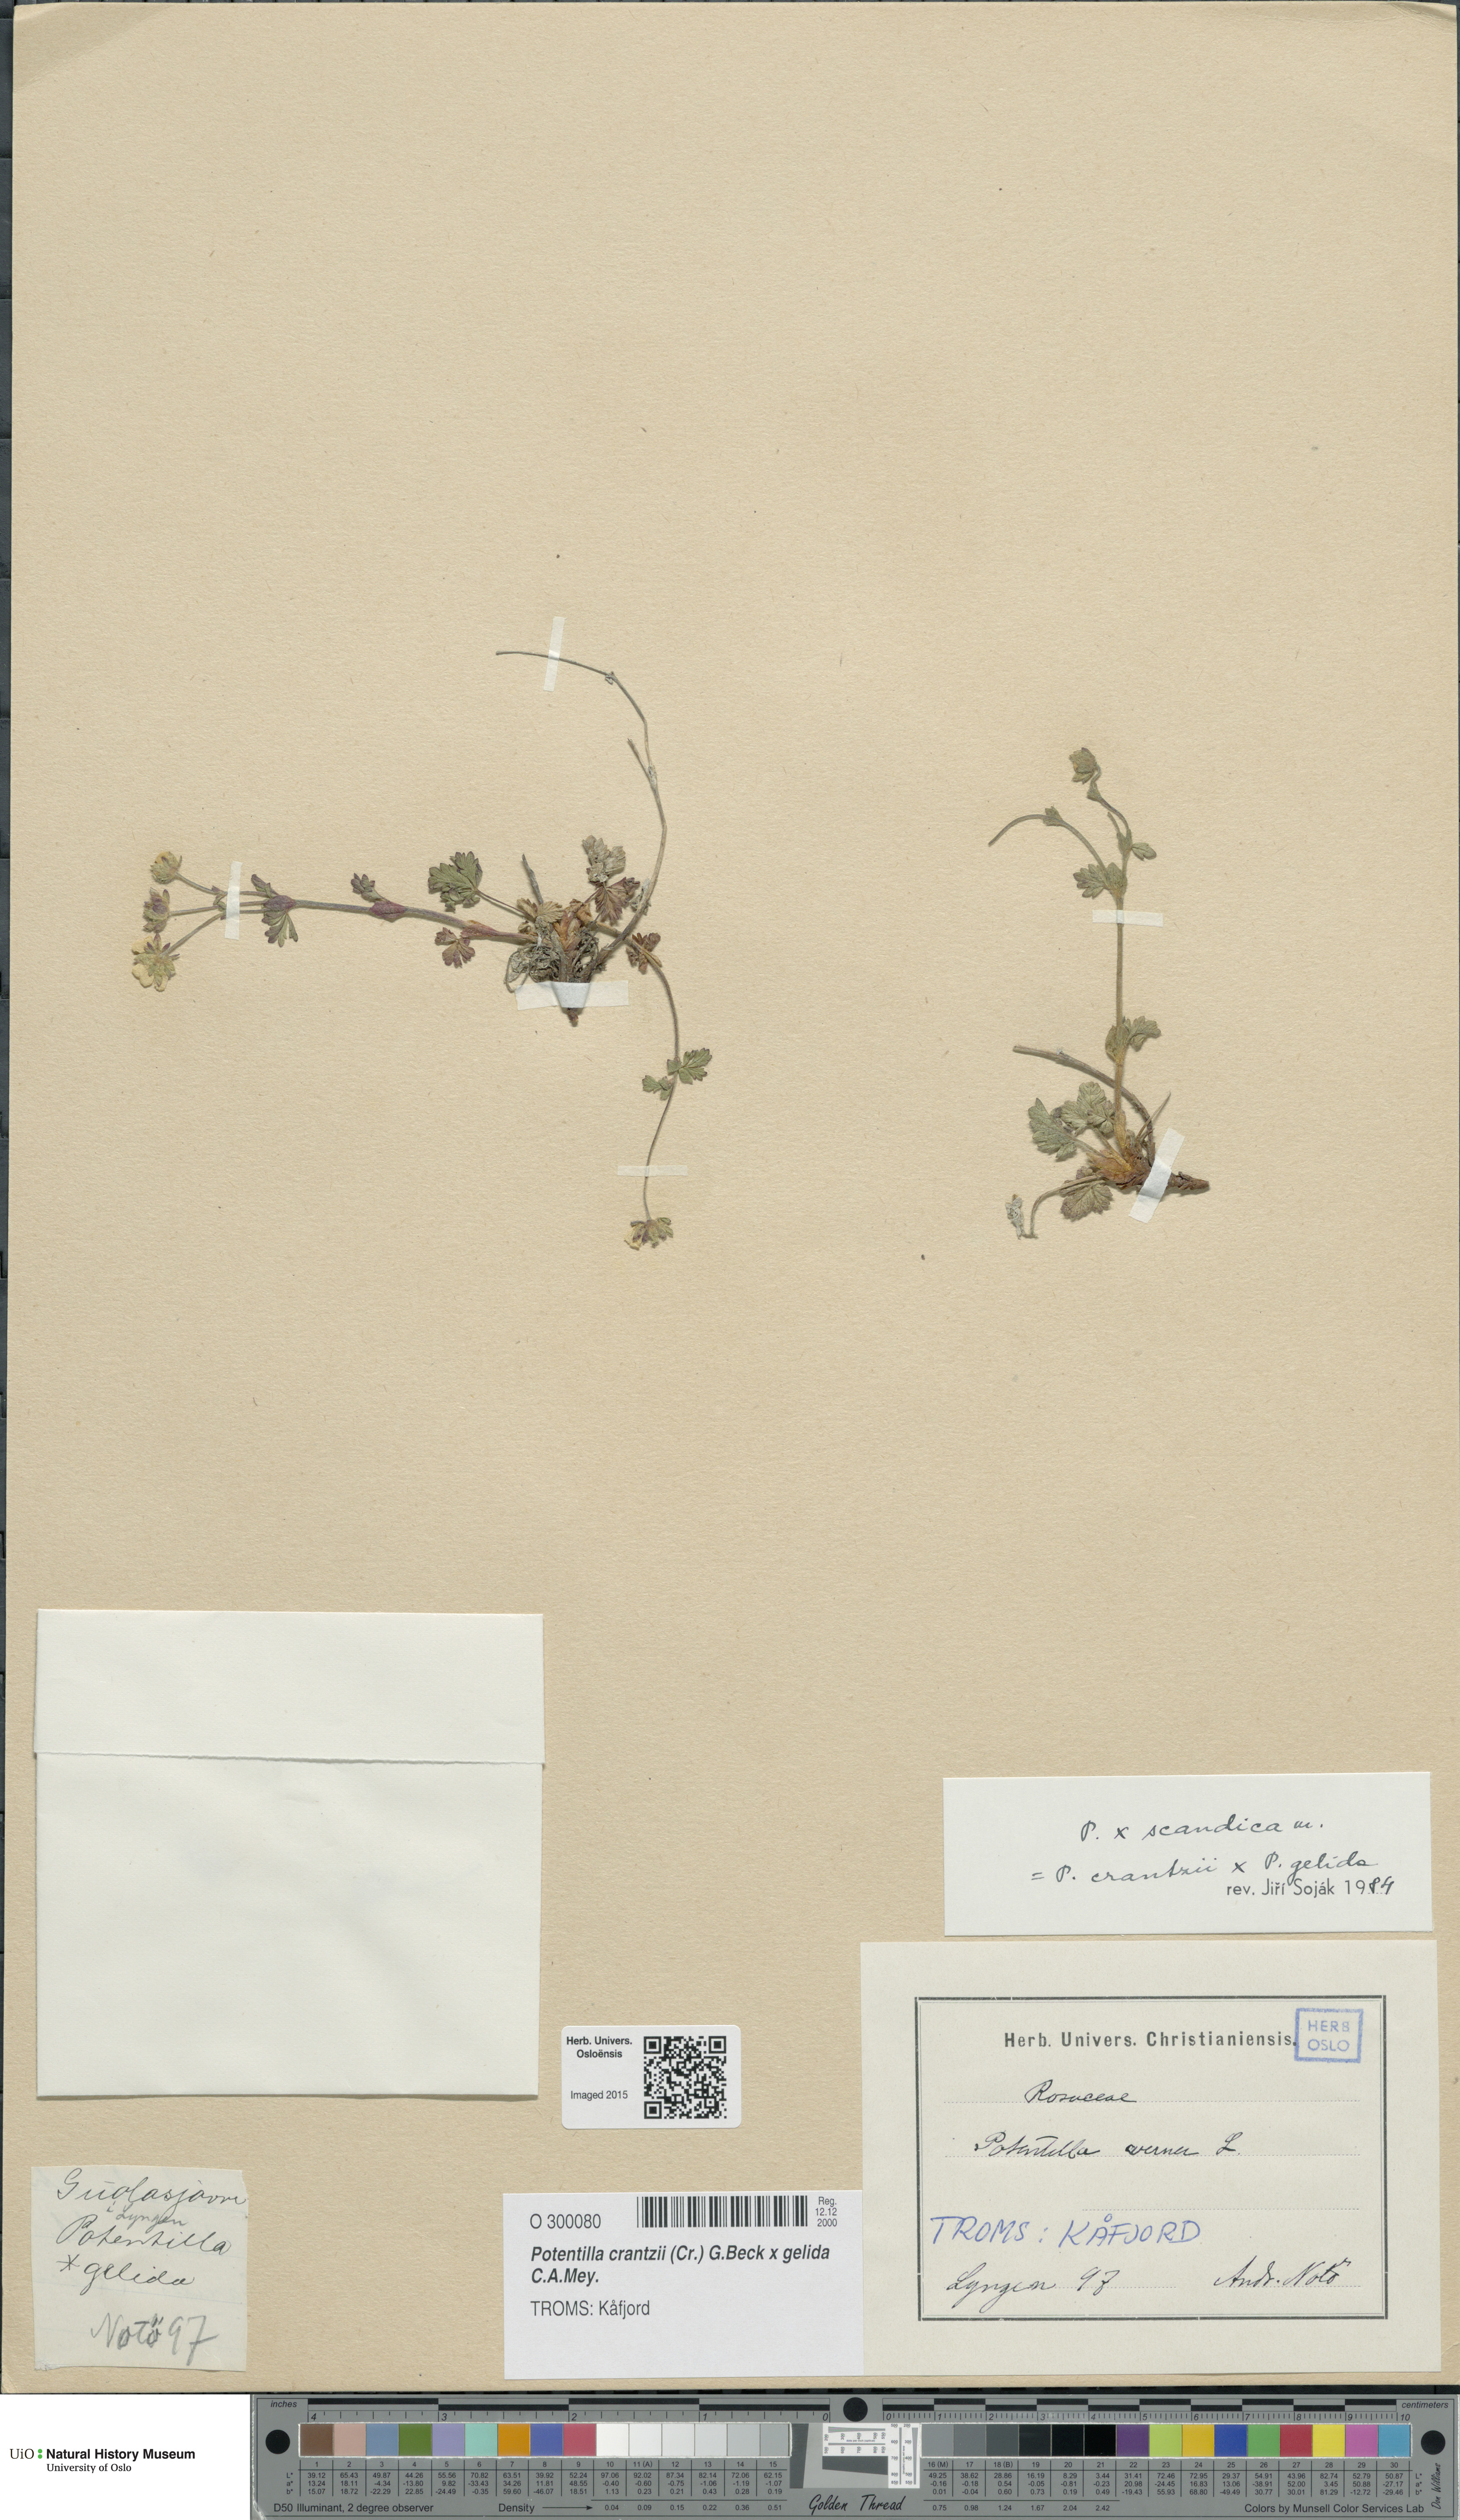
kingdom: Plantae
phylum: Tracheophyta
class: Magnoliopsida
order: Rosales
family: Rosaceae
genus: Potentilla
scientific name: Potentilla
